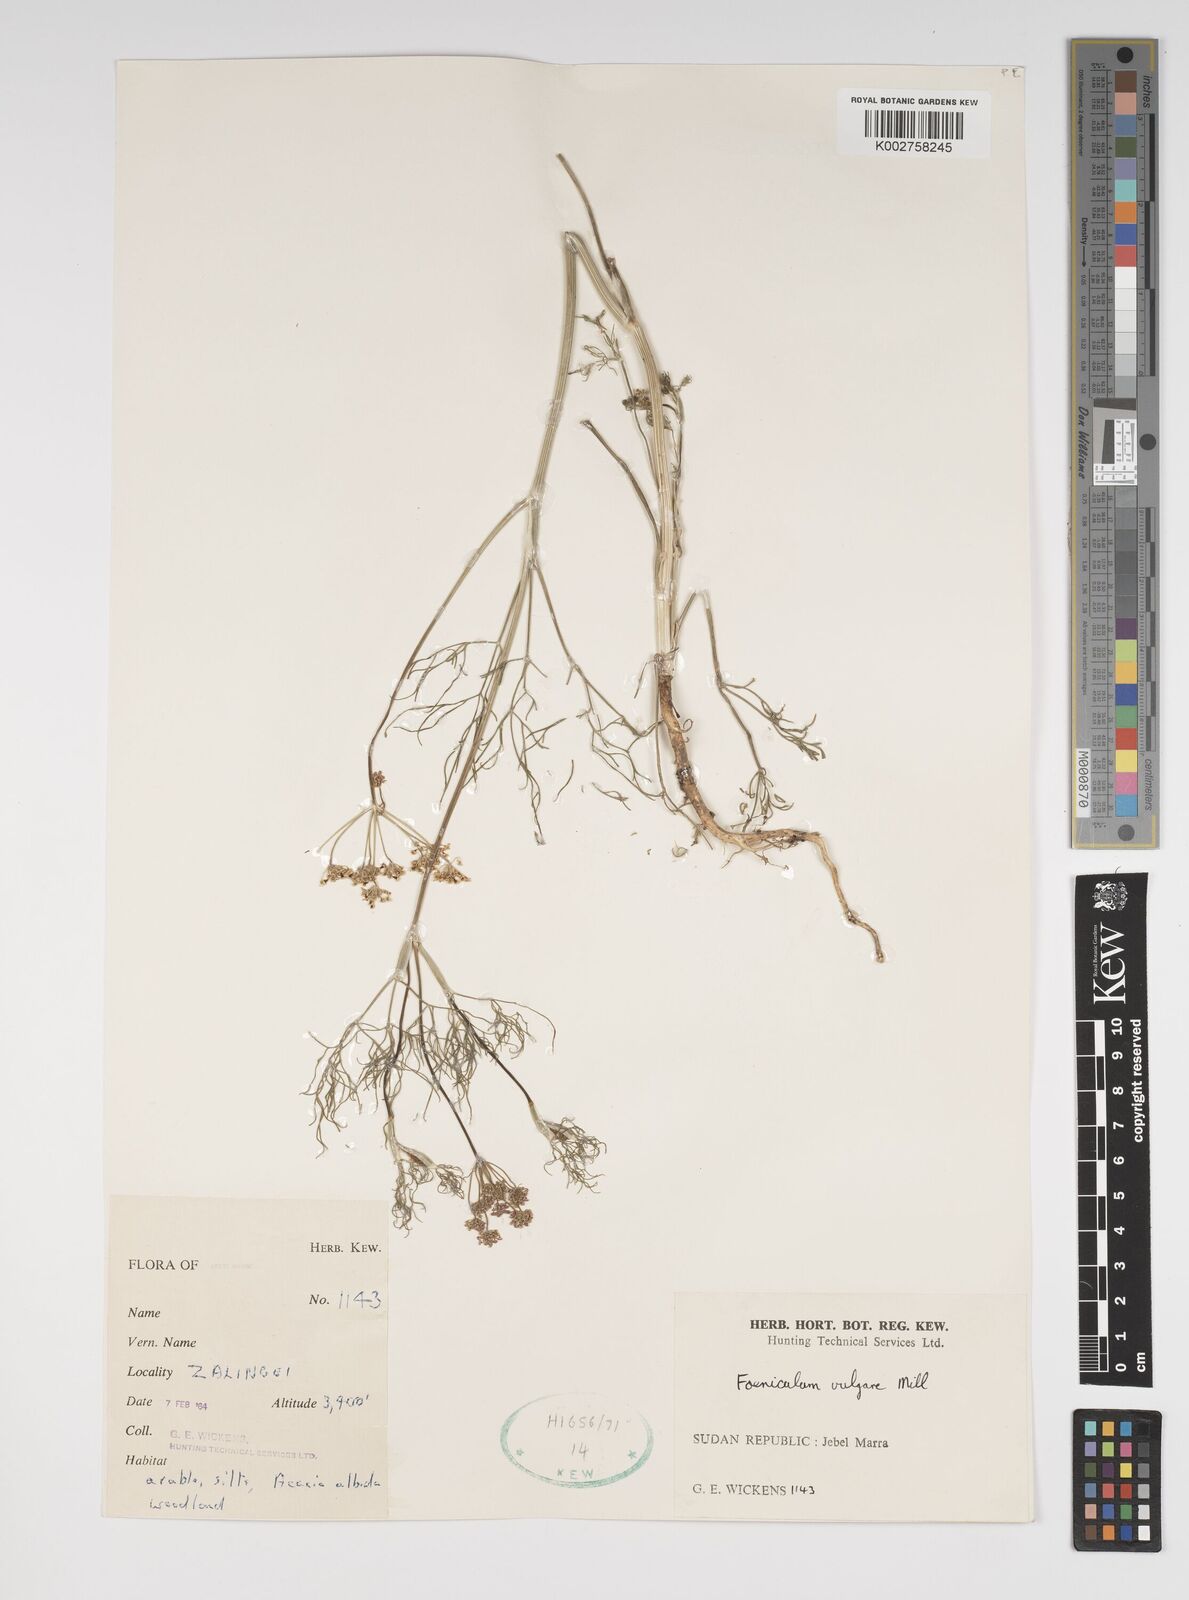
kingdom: Plantae
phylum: Tracheophyta
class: Magnoliopsida
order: Apiales
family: Apiaceae
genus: Foeniculum
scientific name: Foeniculum vulgare
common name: Fennel
